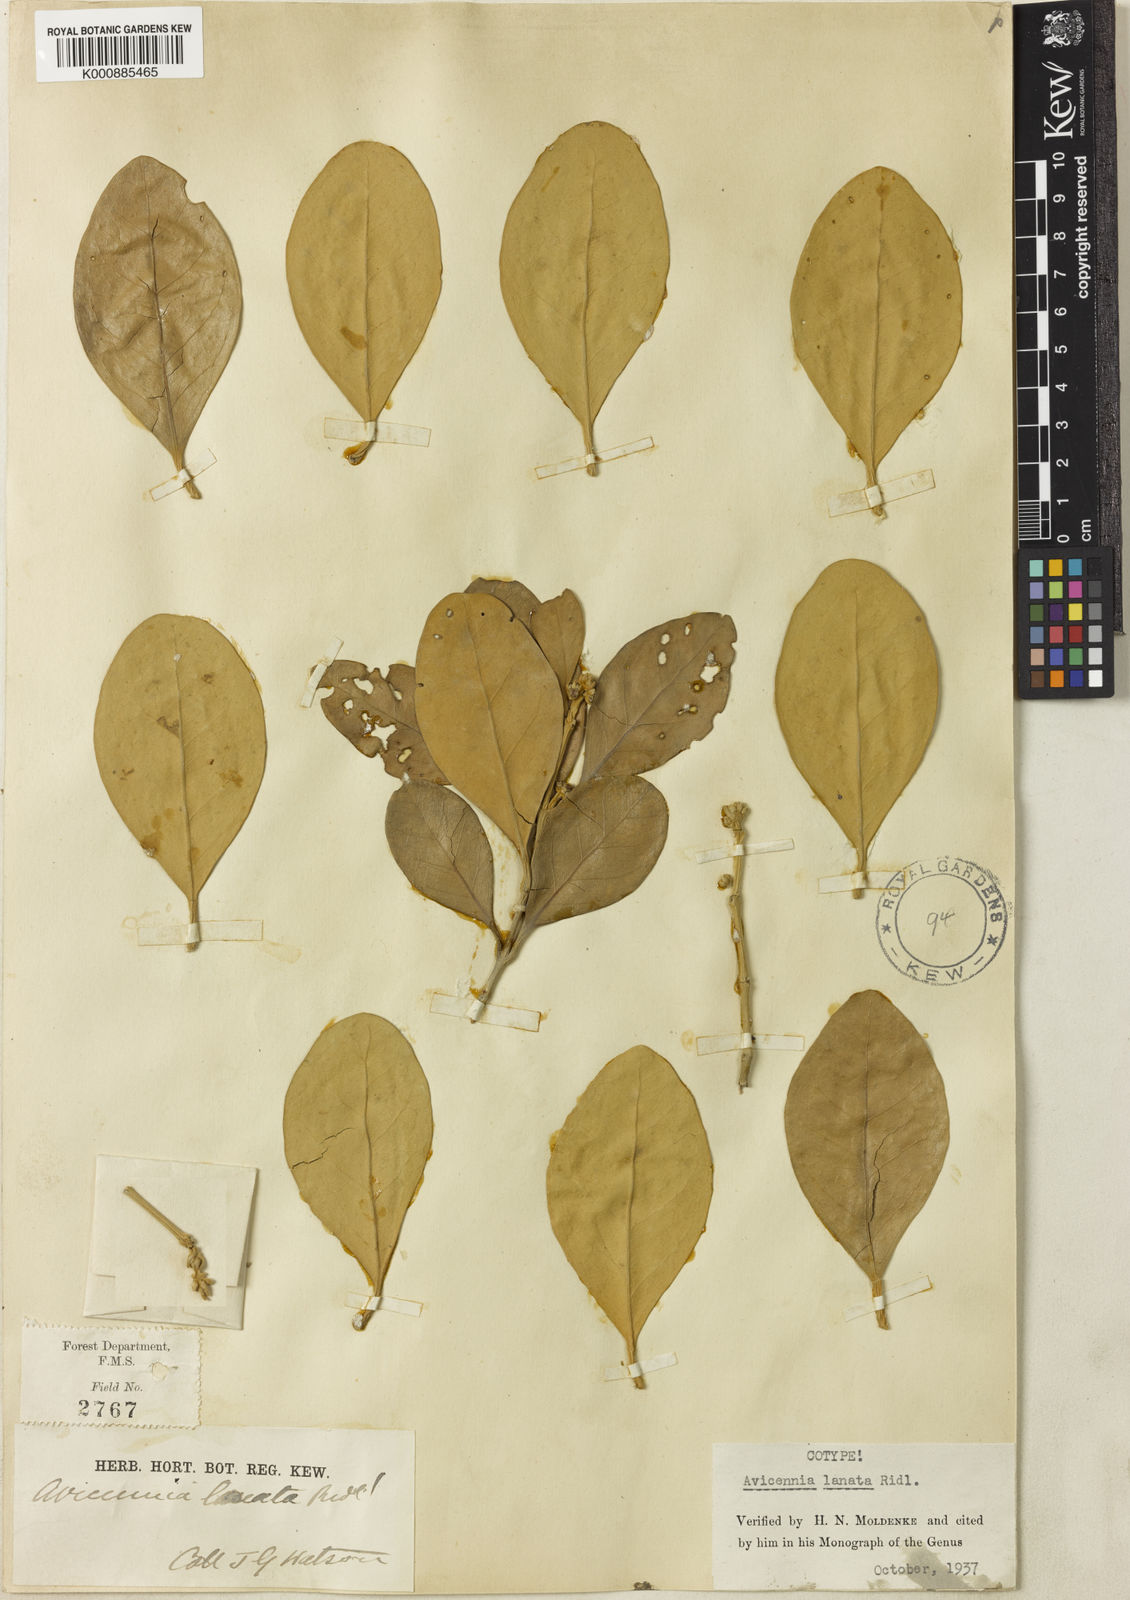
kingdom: Plantae
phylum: Tracheophyta
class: Magnoliopsida
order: Lamiales
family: Acanthaceae
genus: Avicennia
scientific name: Avicennia marina
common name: Gray mangrove
